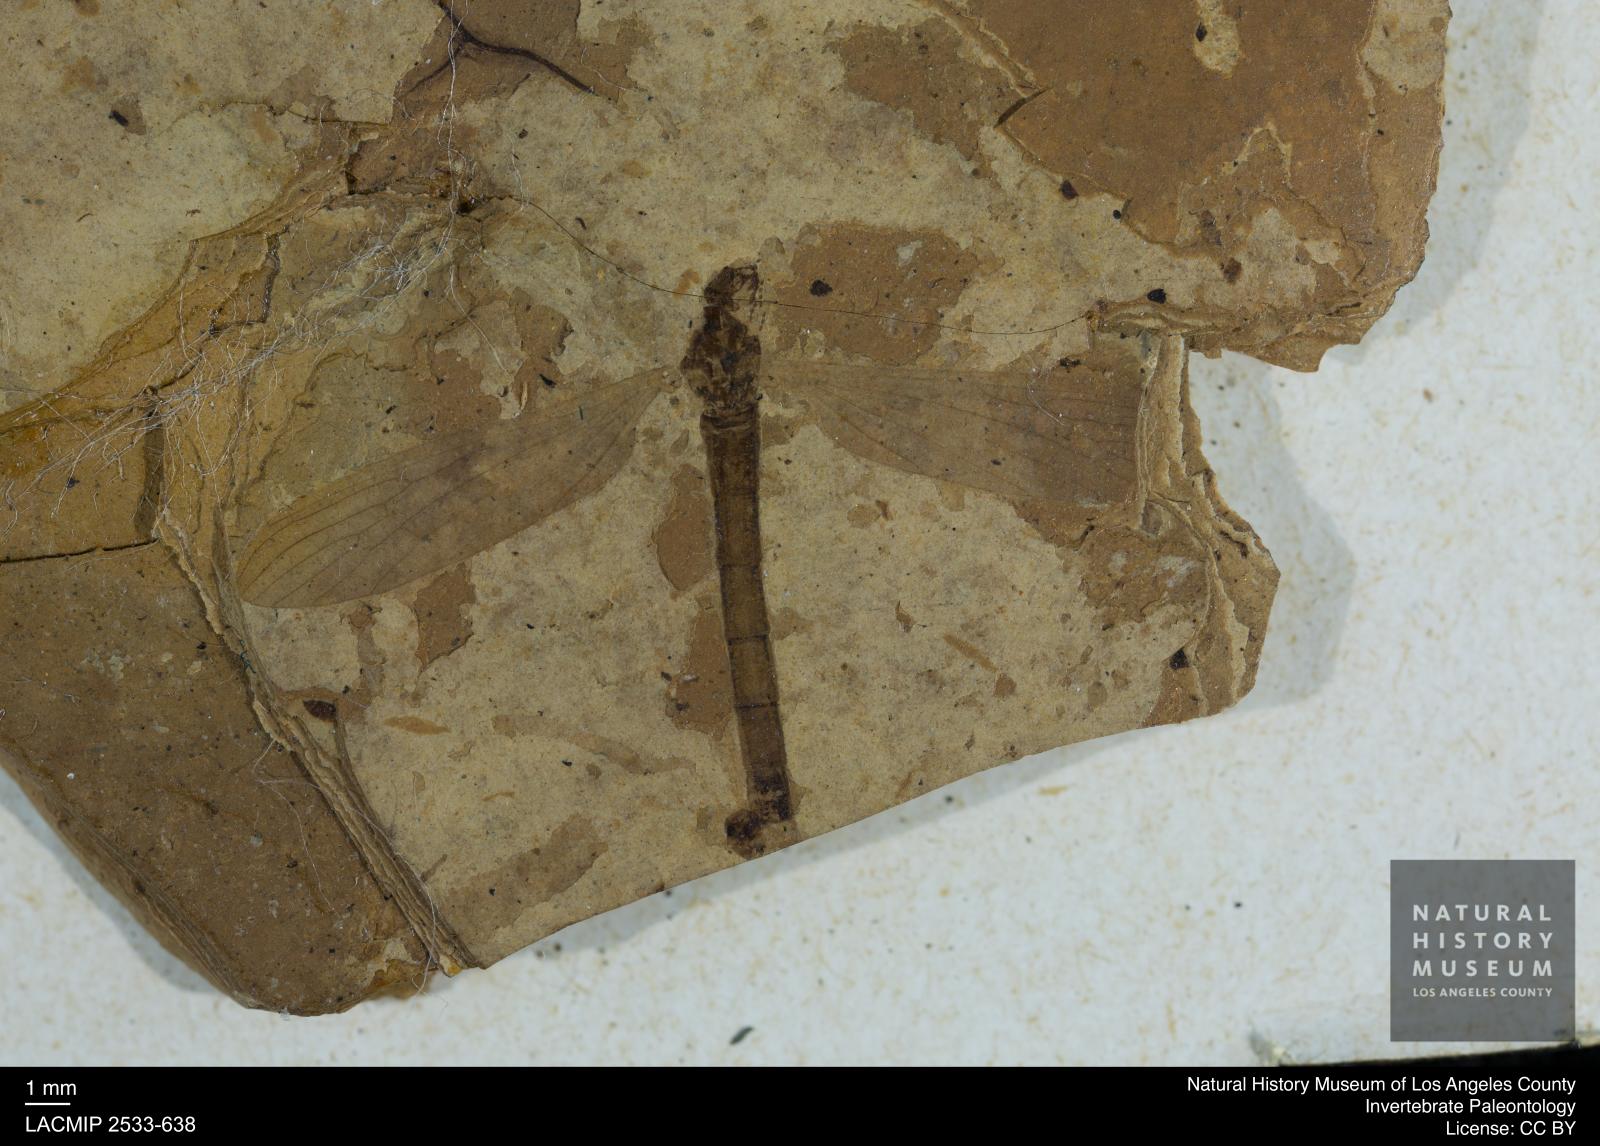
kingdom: Animalia
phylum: Arthropoda
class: Insecta
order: Diptera
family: Limoniidae
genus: Dicranoptycha
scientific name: Dicranoptycha rottensis
